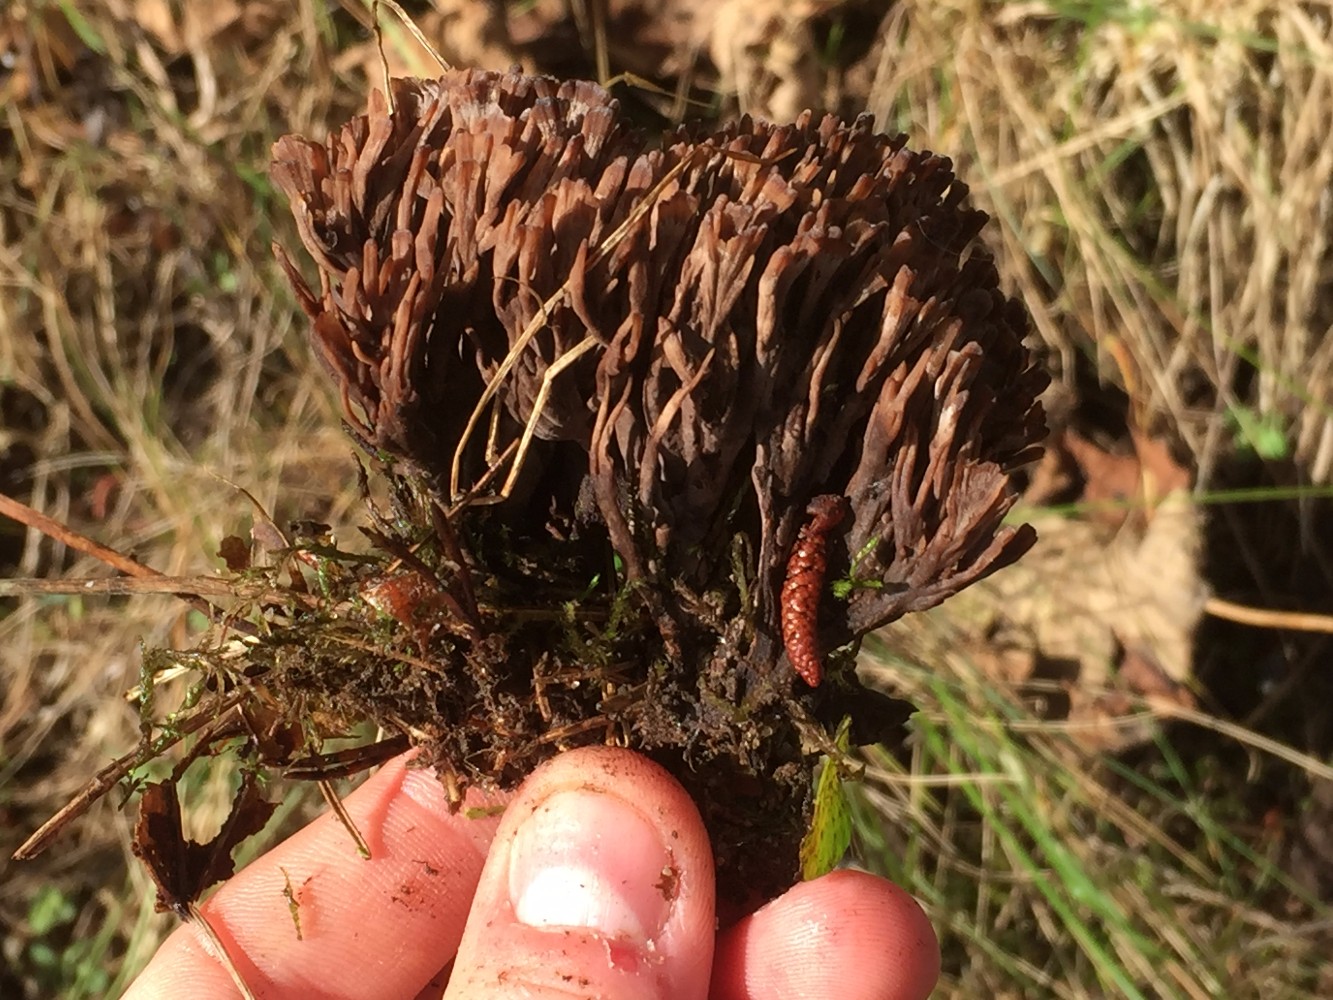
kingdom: Fungi
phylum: Basidiomycota
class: Agaricomycetes
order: Thelephorales
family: Thelephoraceae
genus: Thelephora
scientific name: Thelephora palmata
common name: grenet frynsesvamp
